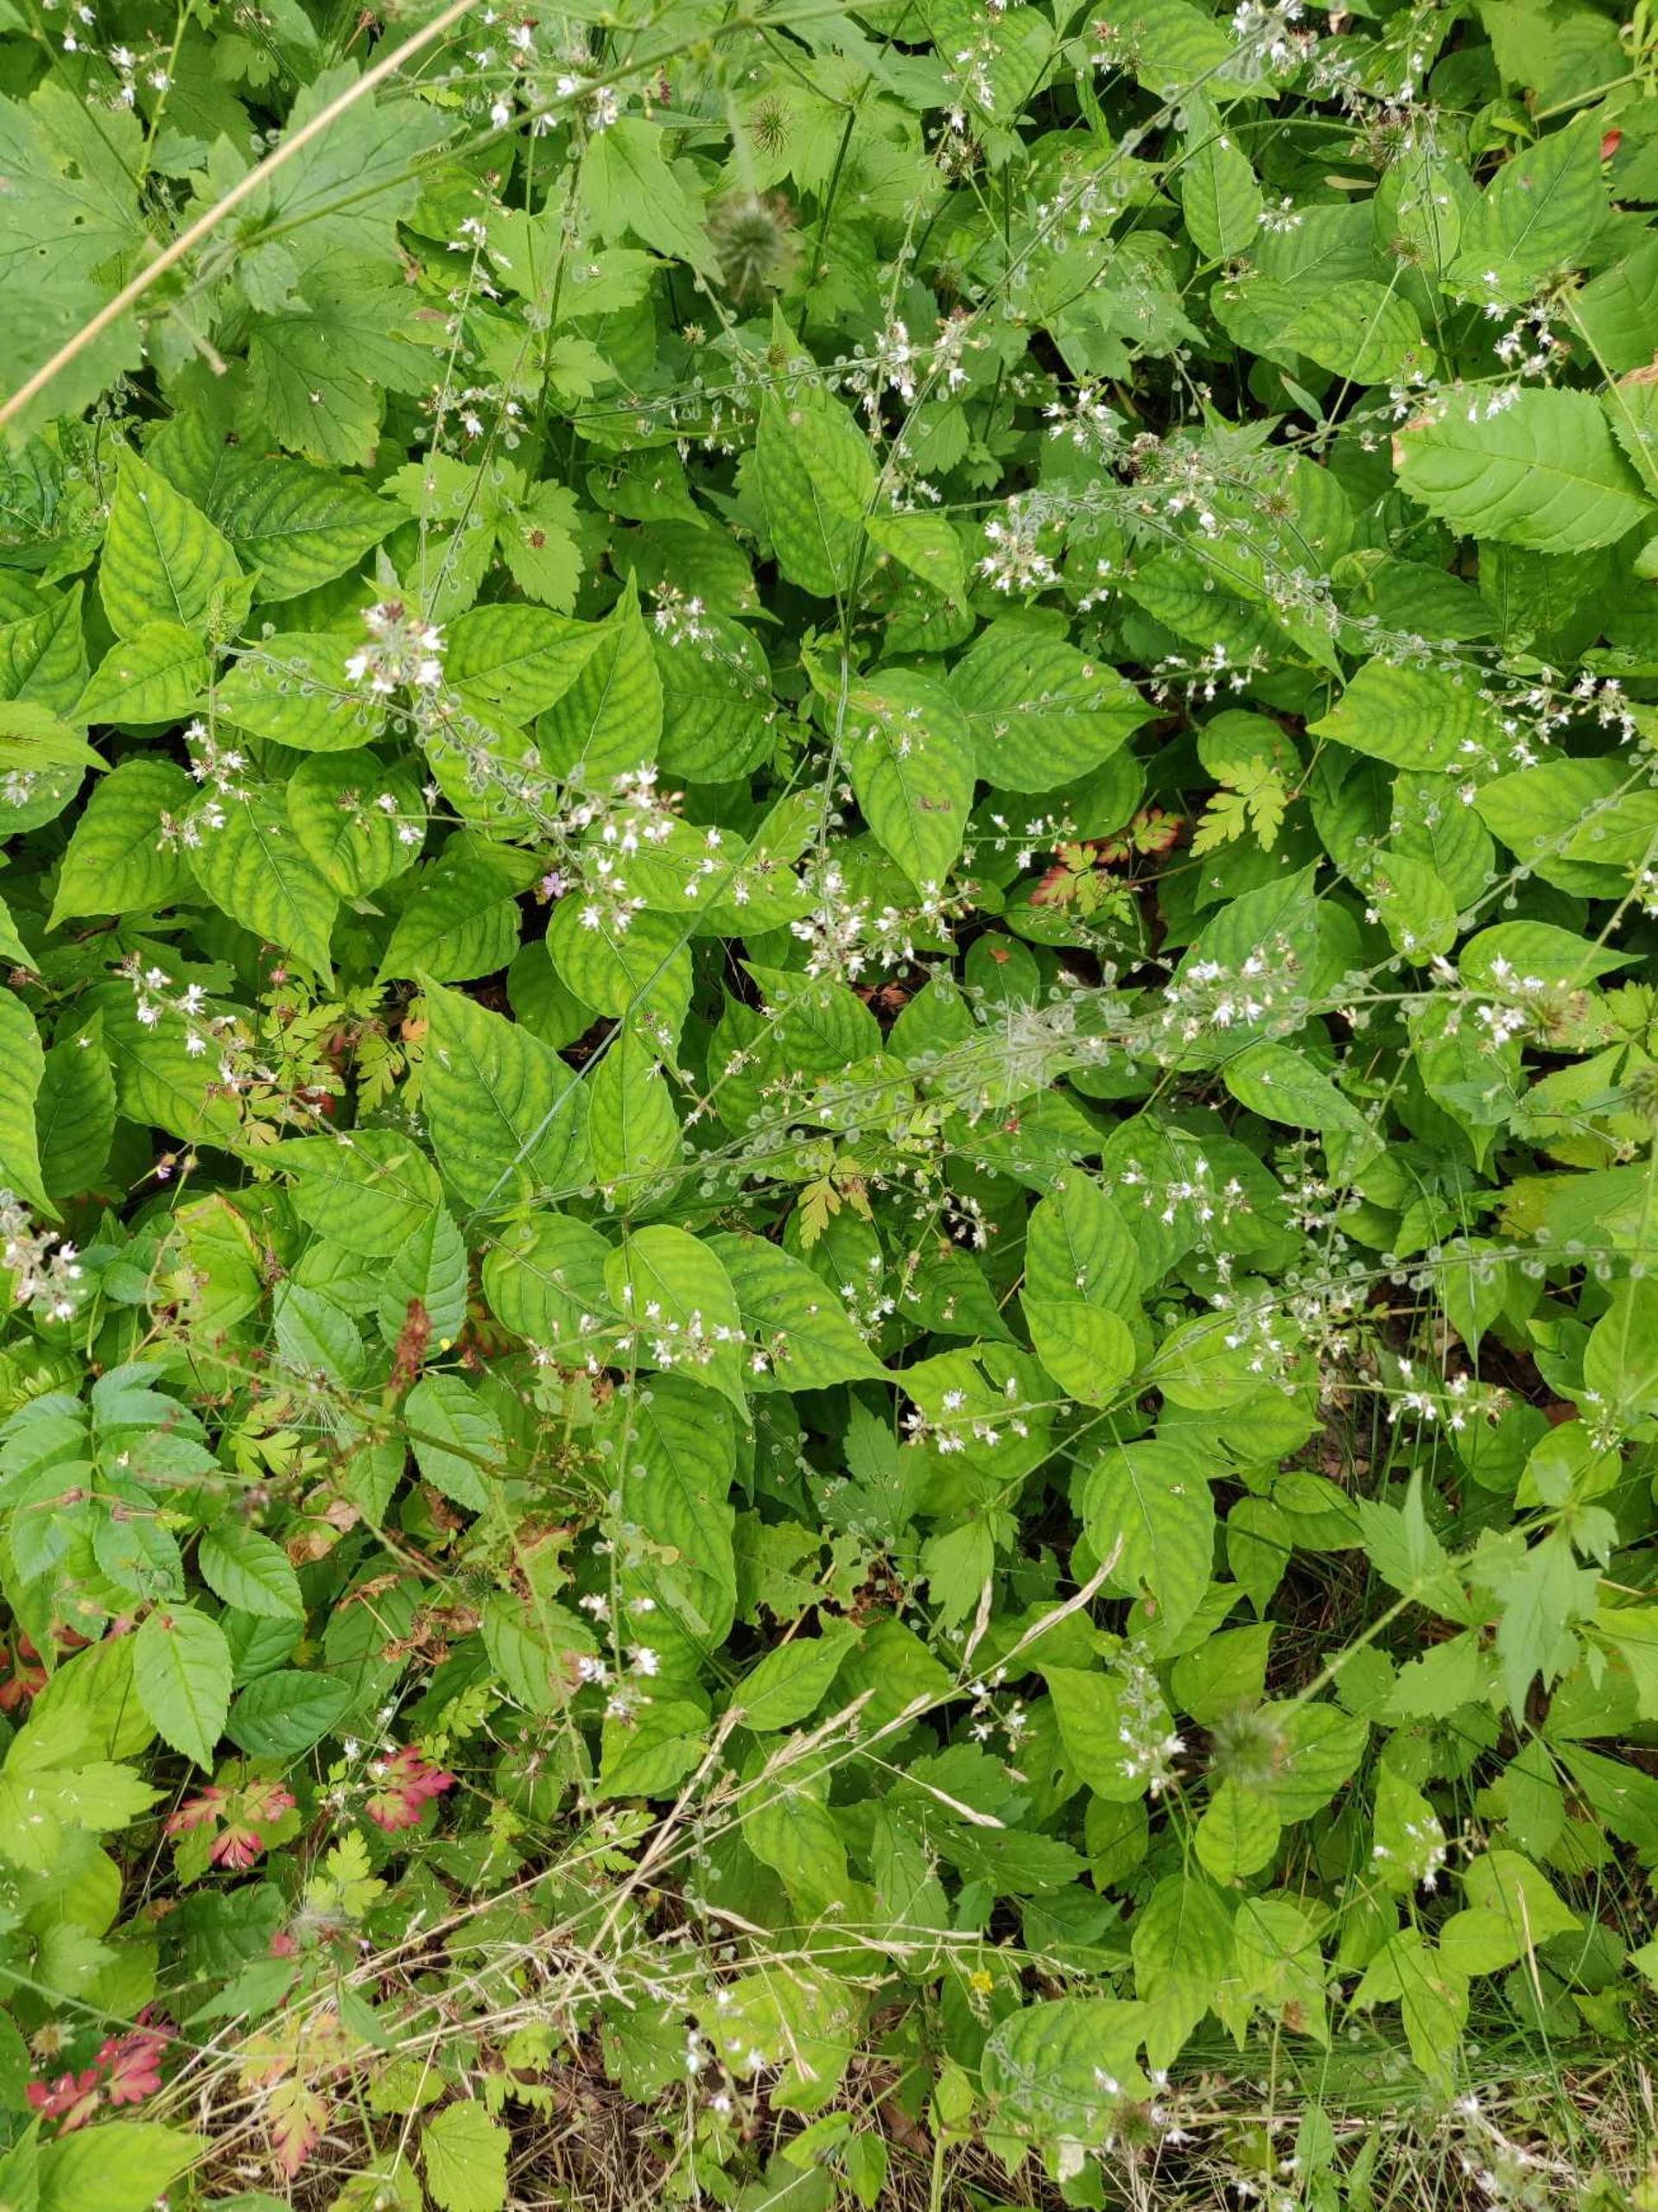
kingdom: Plantae
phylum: Tracheophyta
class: Magnoliopsida
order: Myrtales
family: Onagraceae
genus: Circaea
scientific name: Circaea lutetiana
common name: Dunet steffensurt
